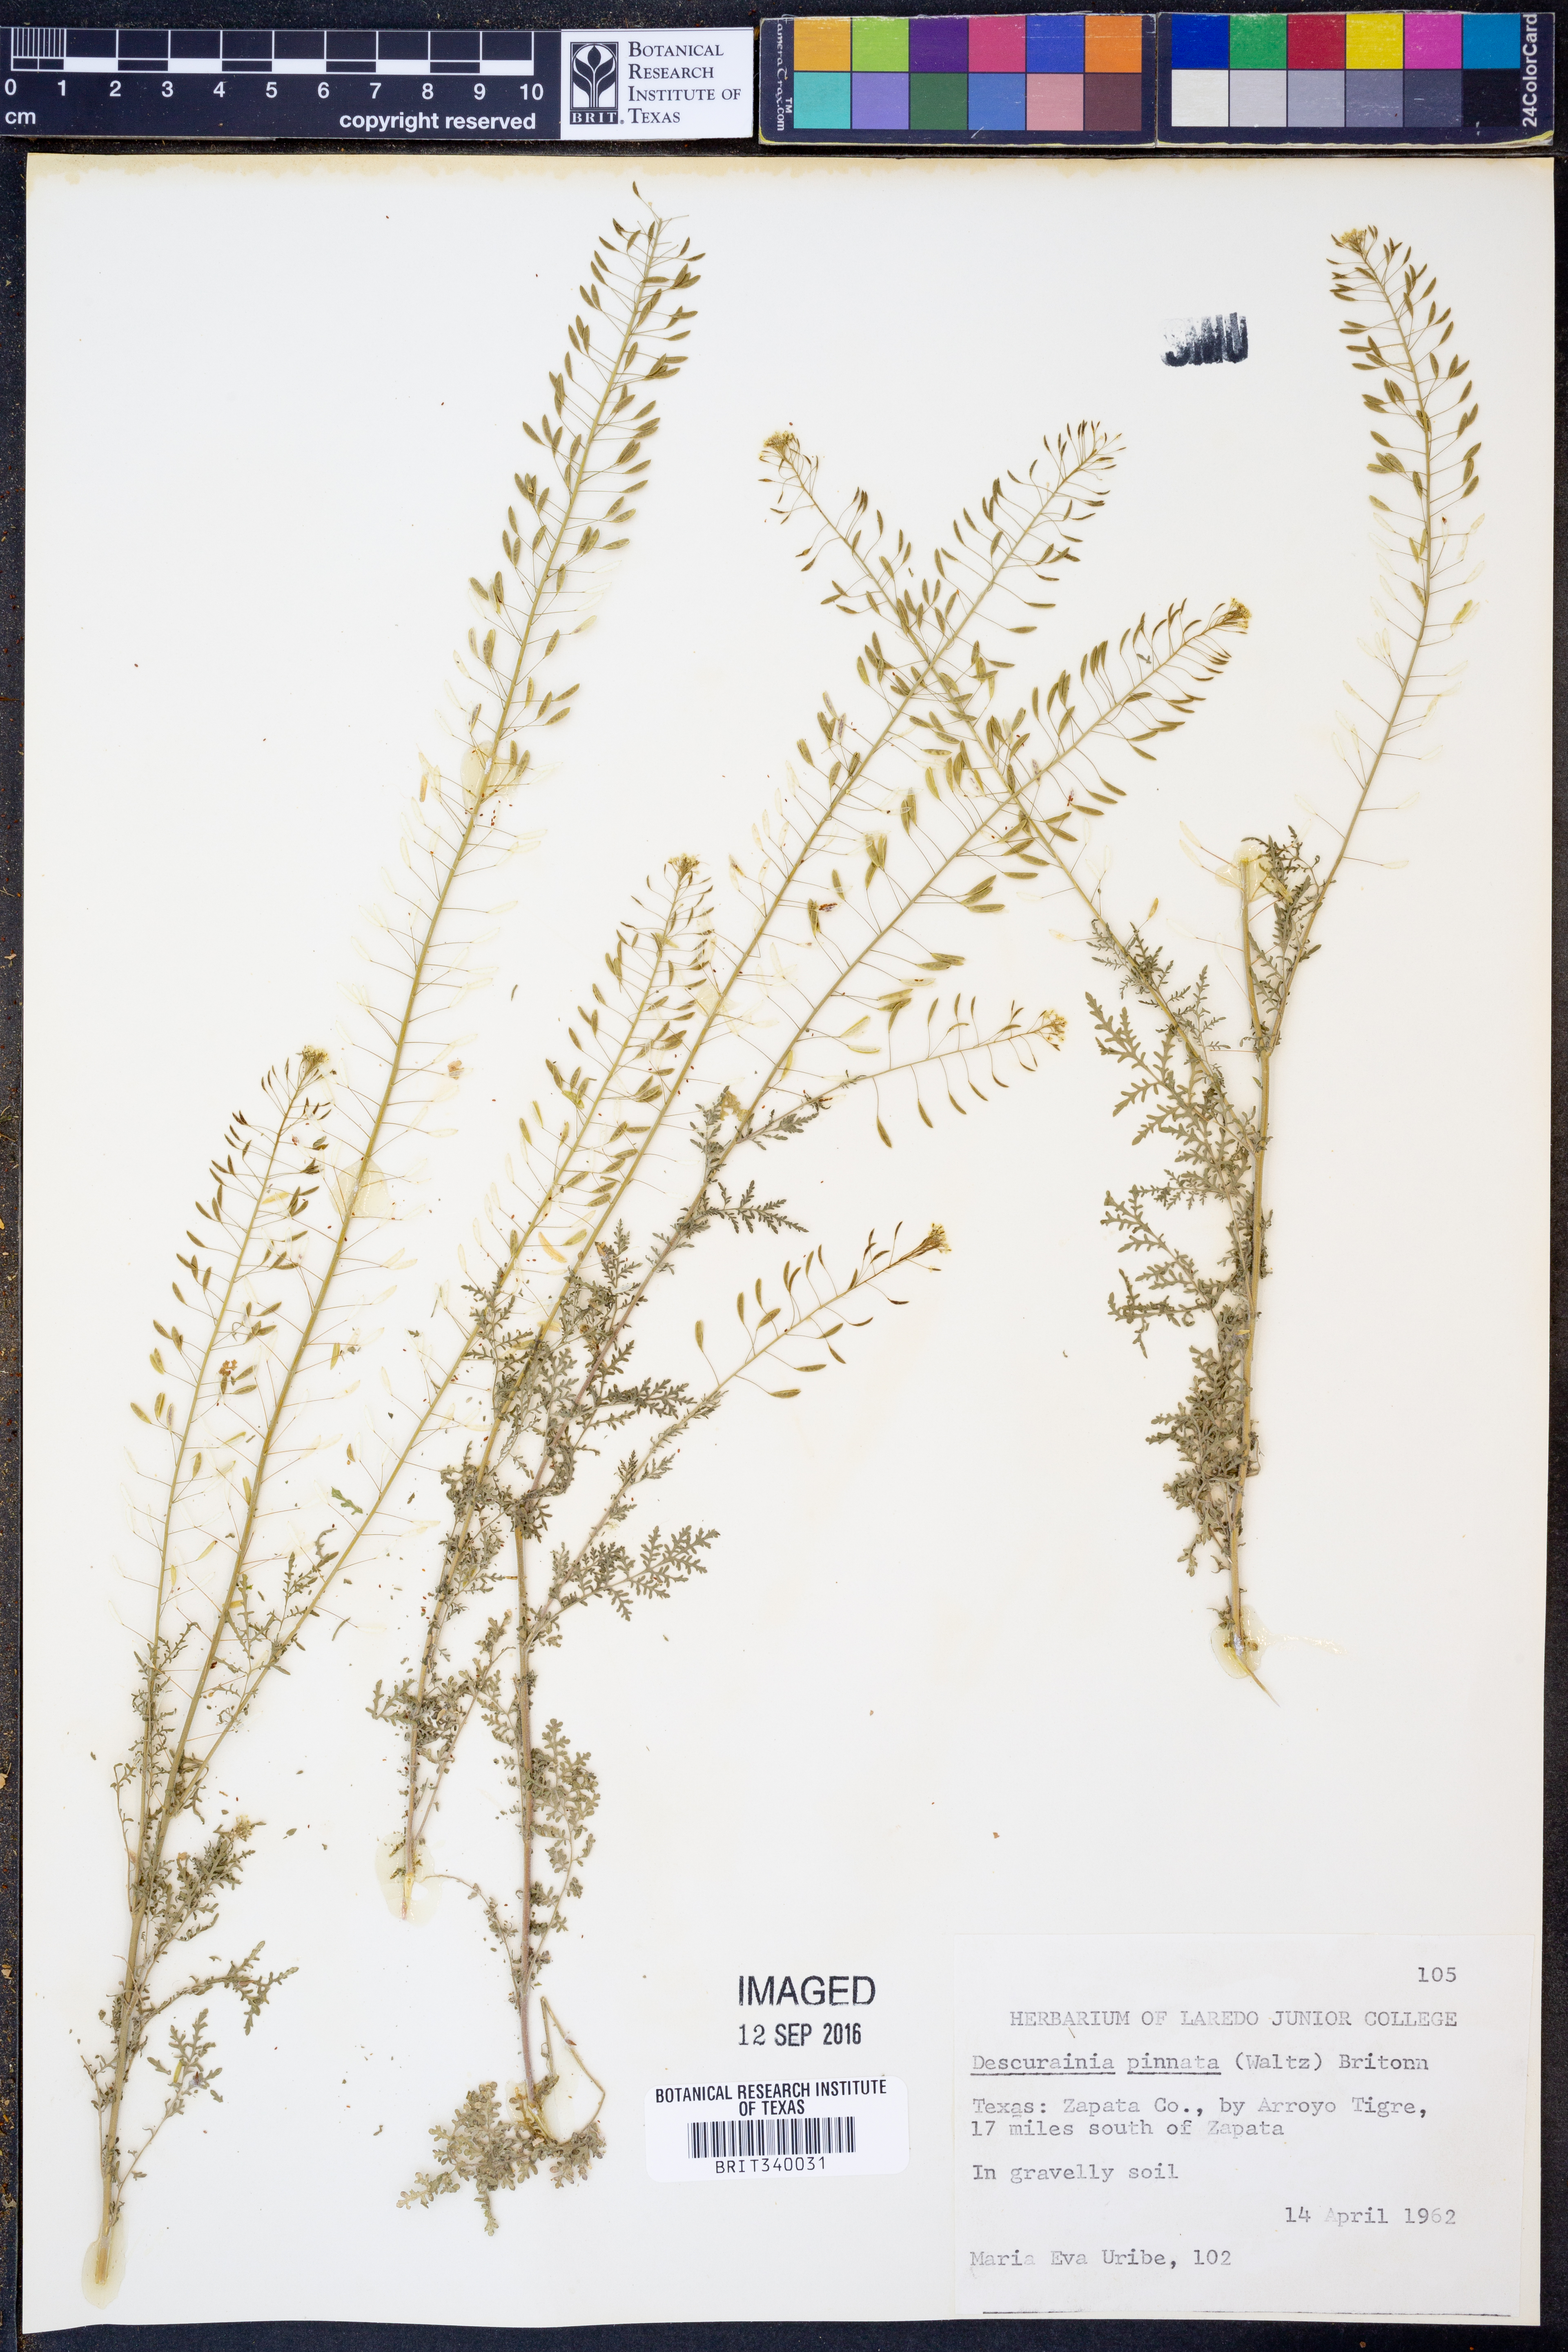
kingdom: Plantae
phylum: Tracheophyta
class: Magnoliopsida
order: Brassicales
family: Brassicaceae
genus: Descurainia
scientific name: Descurainia pinnata
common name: Western tansy mustard
